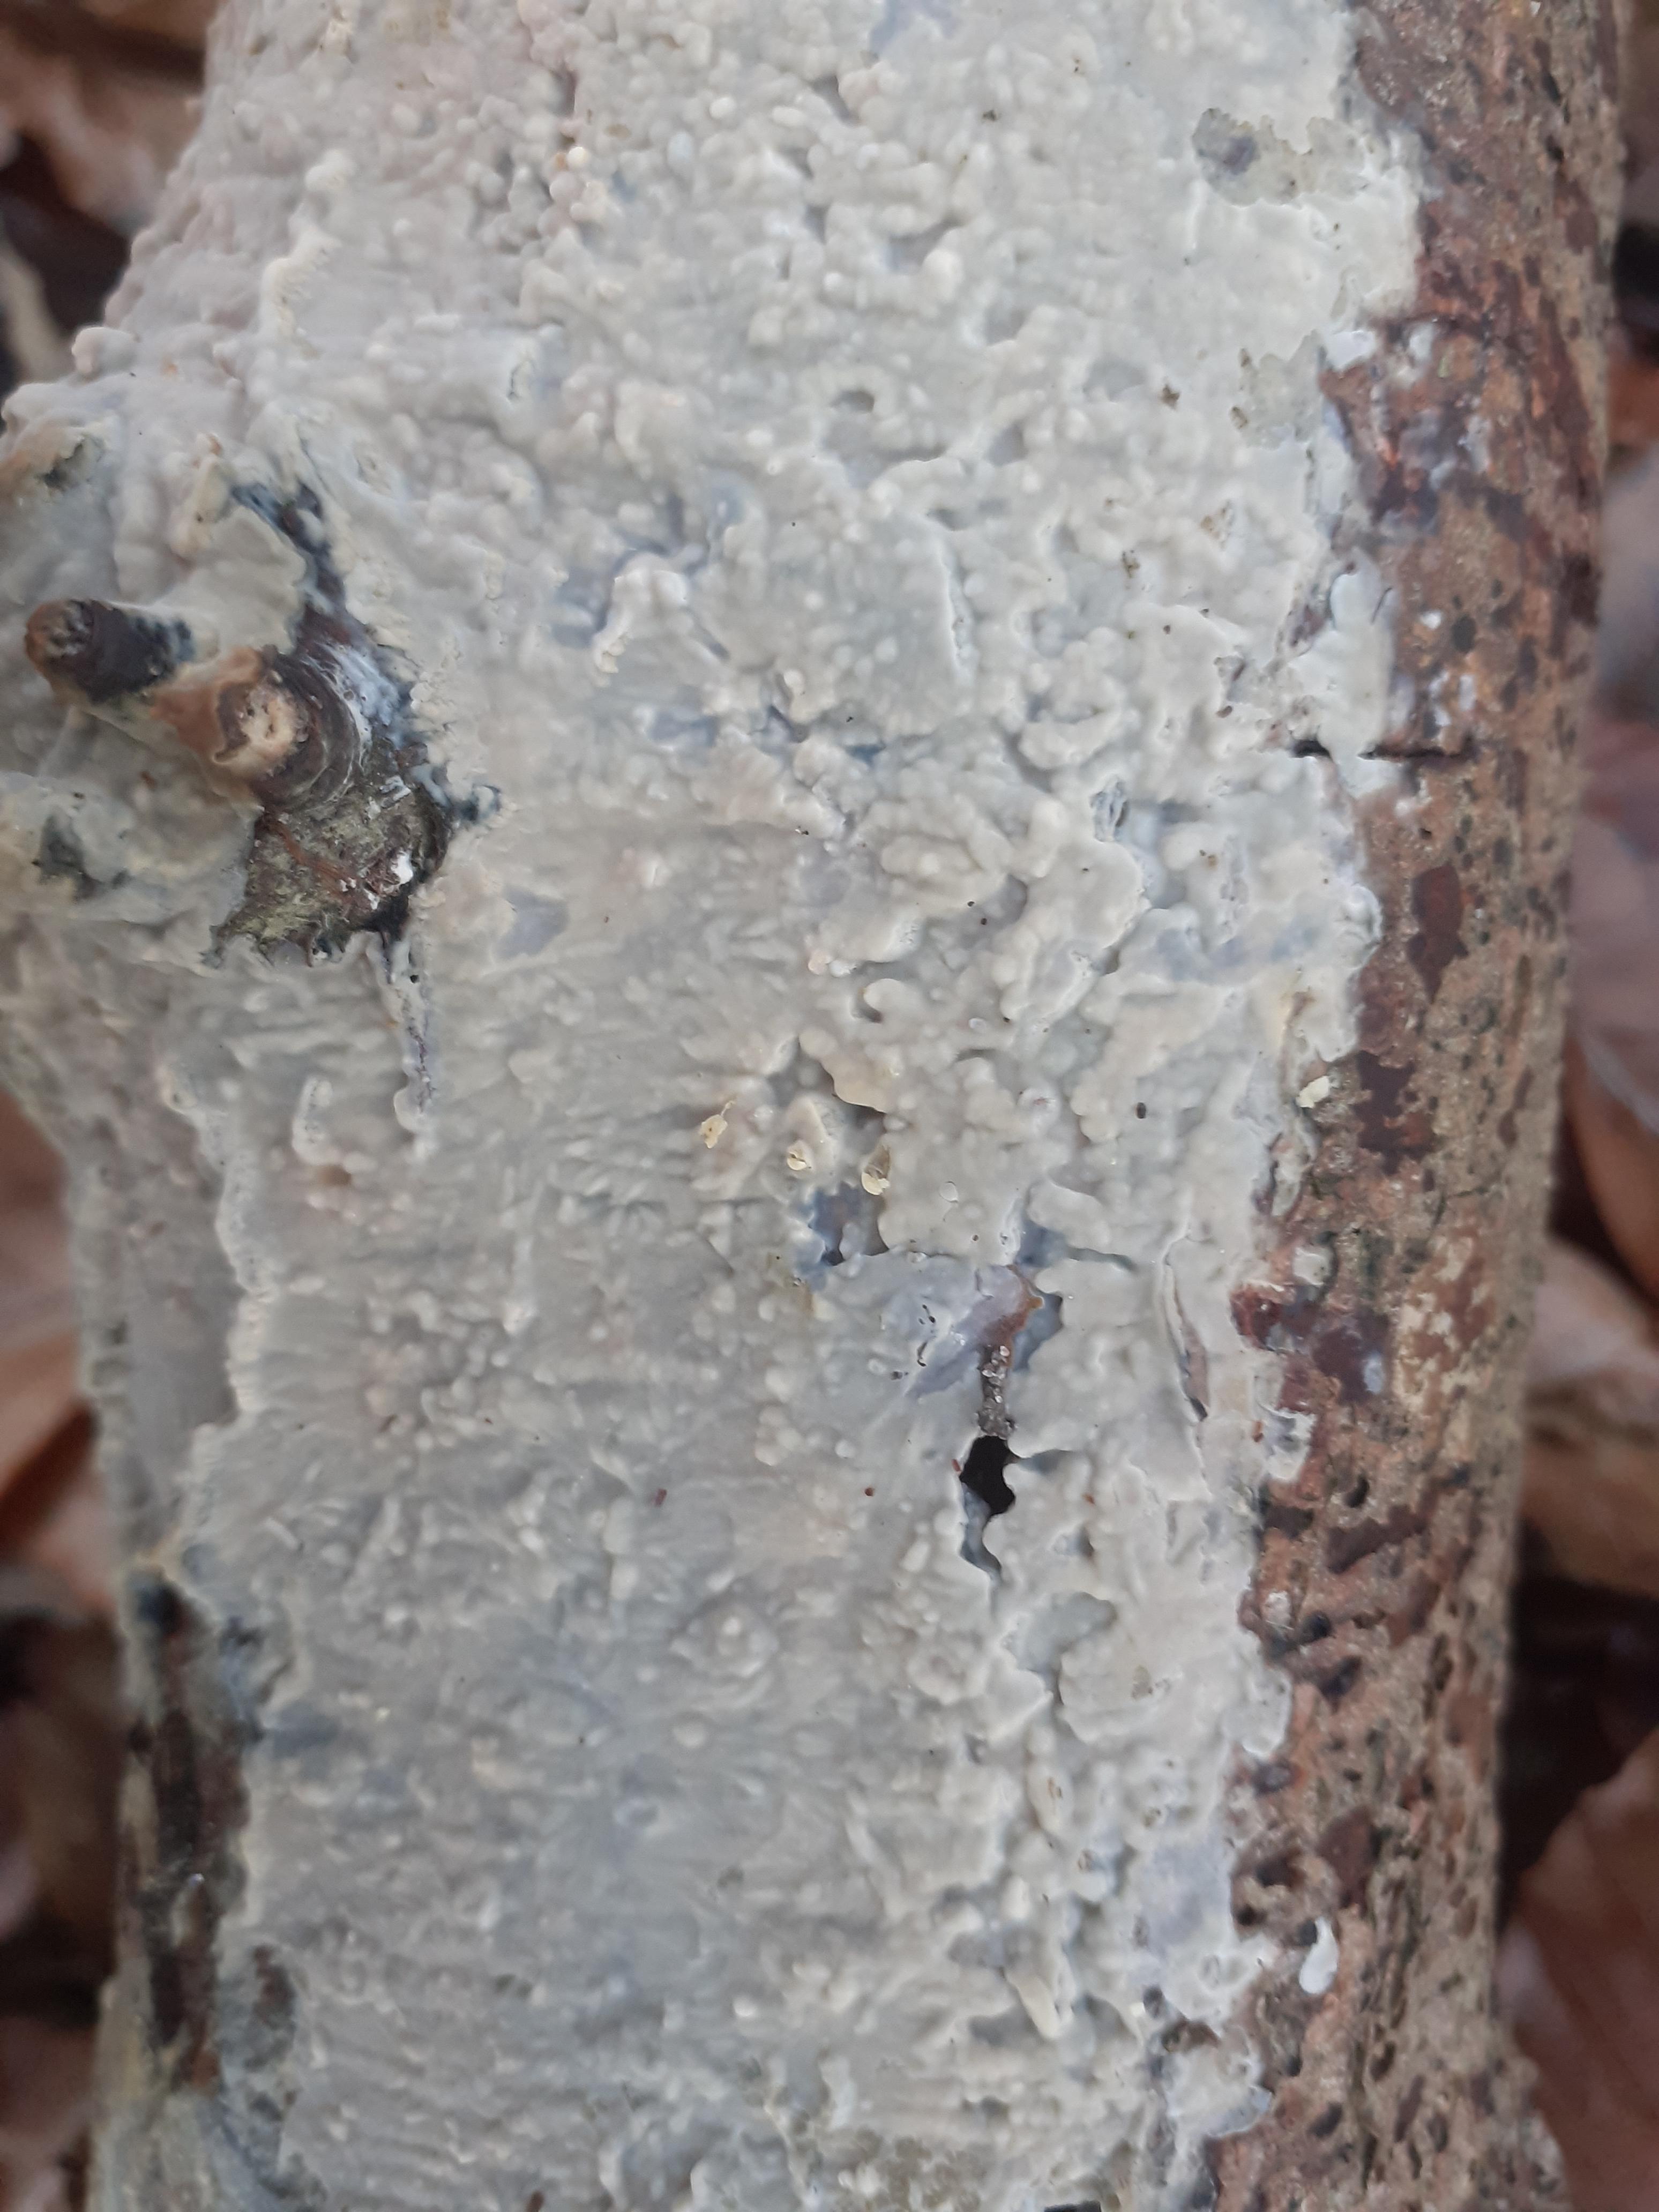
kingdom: Fungi
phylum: Basidiomycota
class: Agaricomycetes
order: Agaricales
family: Radulomycetaceae
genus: Radulomyces
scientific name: Radulomyces confluens
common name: glat naftalinskind
